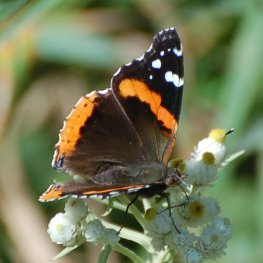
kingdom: Animalia
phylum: Arthropoda
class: Insecta
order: Lepidoptera
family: Nymphalidae
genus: Vanessa
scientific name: Vanessa atalanta
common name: Red Admiral
